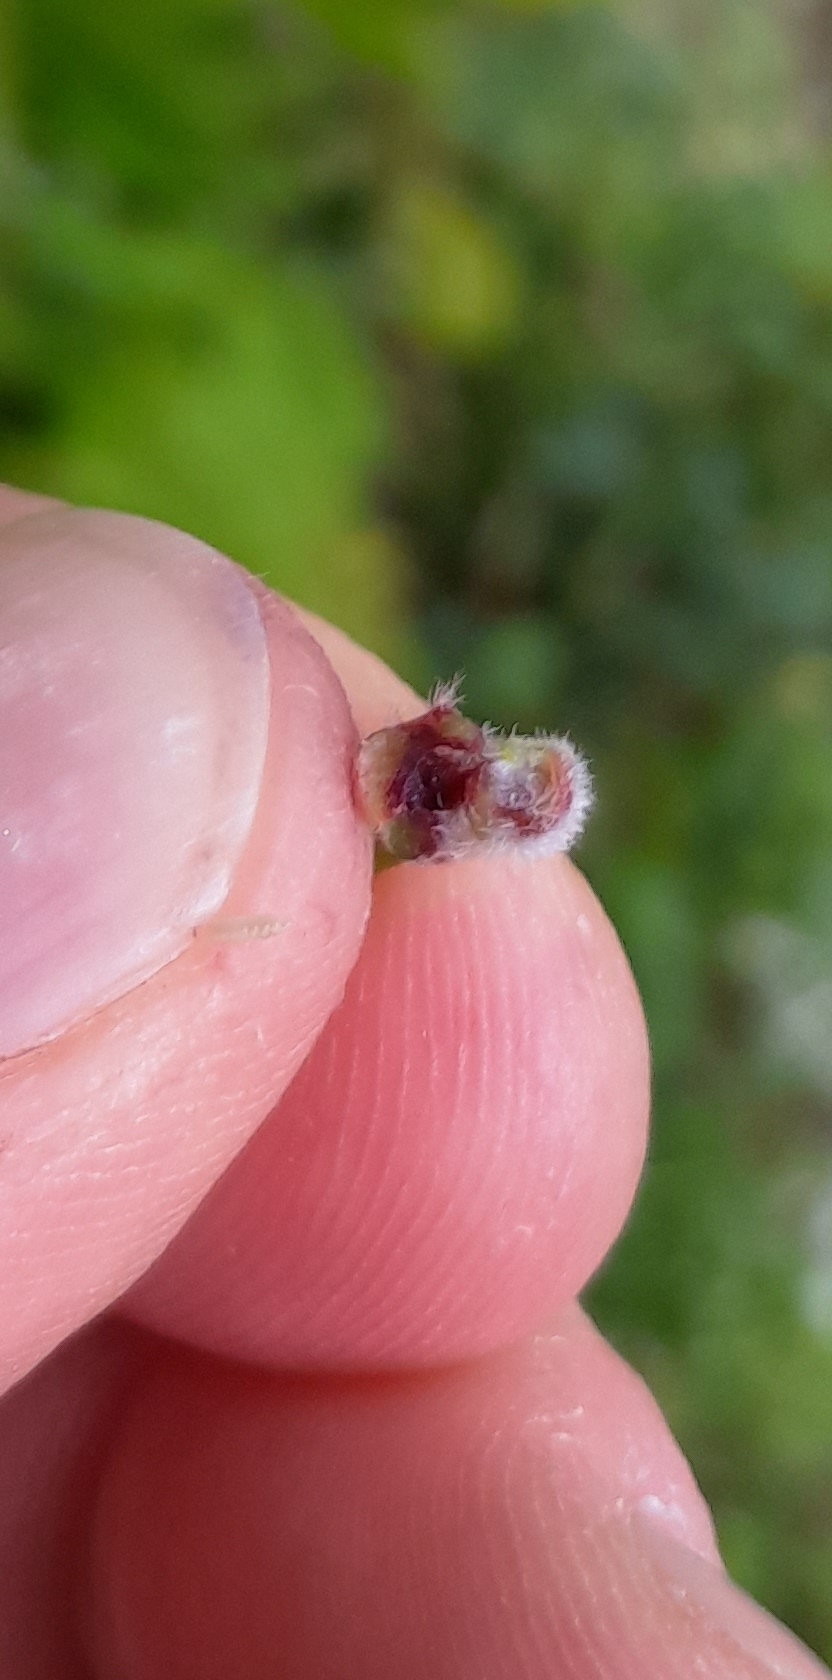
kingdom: Animalia
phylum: Arthropoda
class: Insecta
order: Diptera
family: Cecidomyiidae
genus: Contarinia
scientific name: Contarinia tiliarum
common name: Springende lindegalmyg
